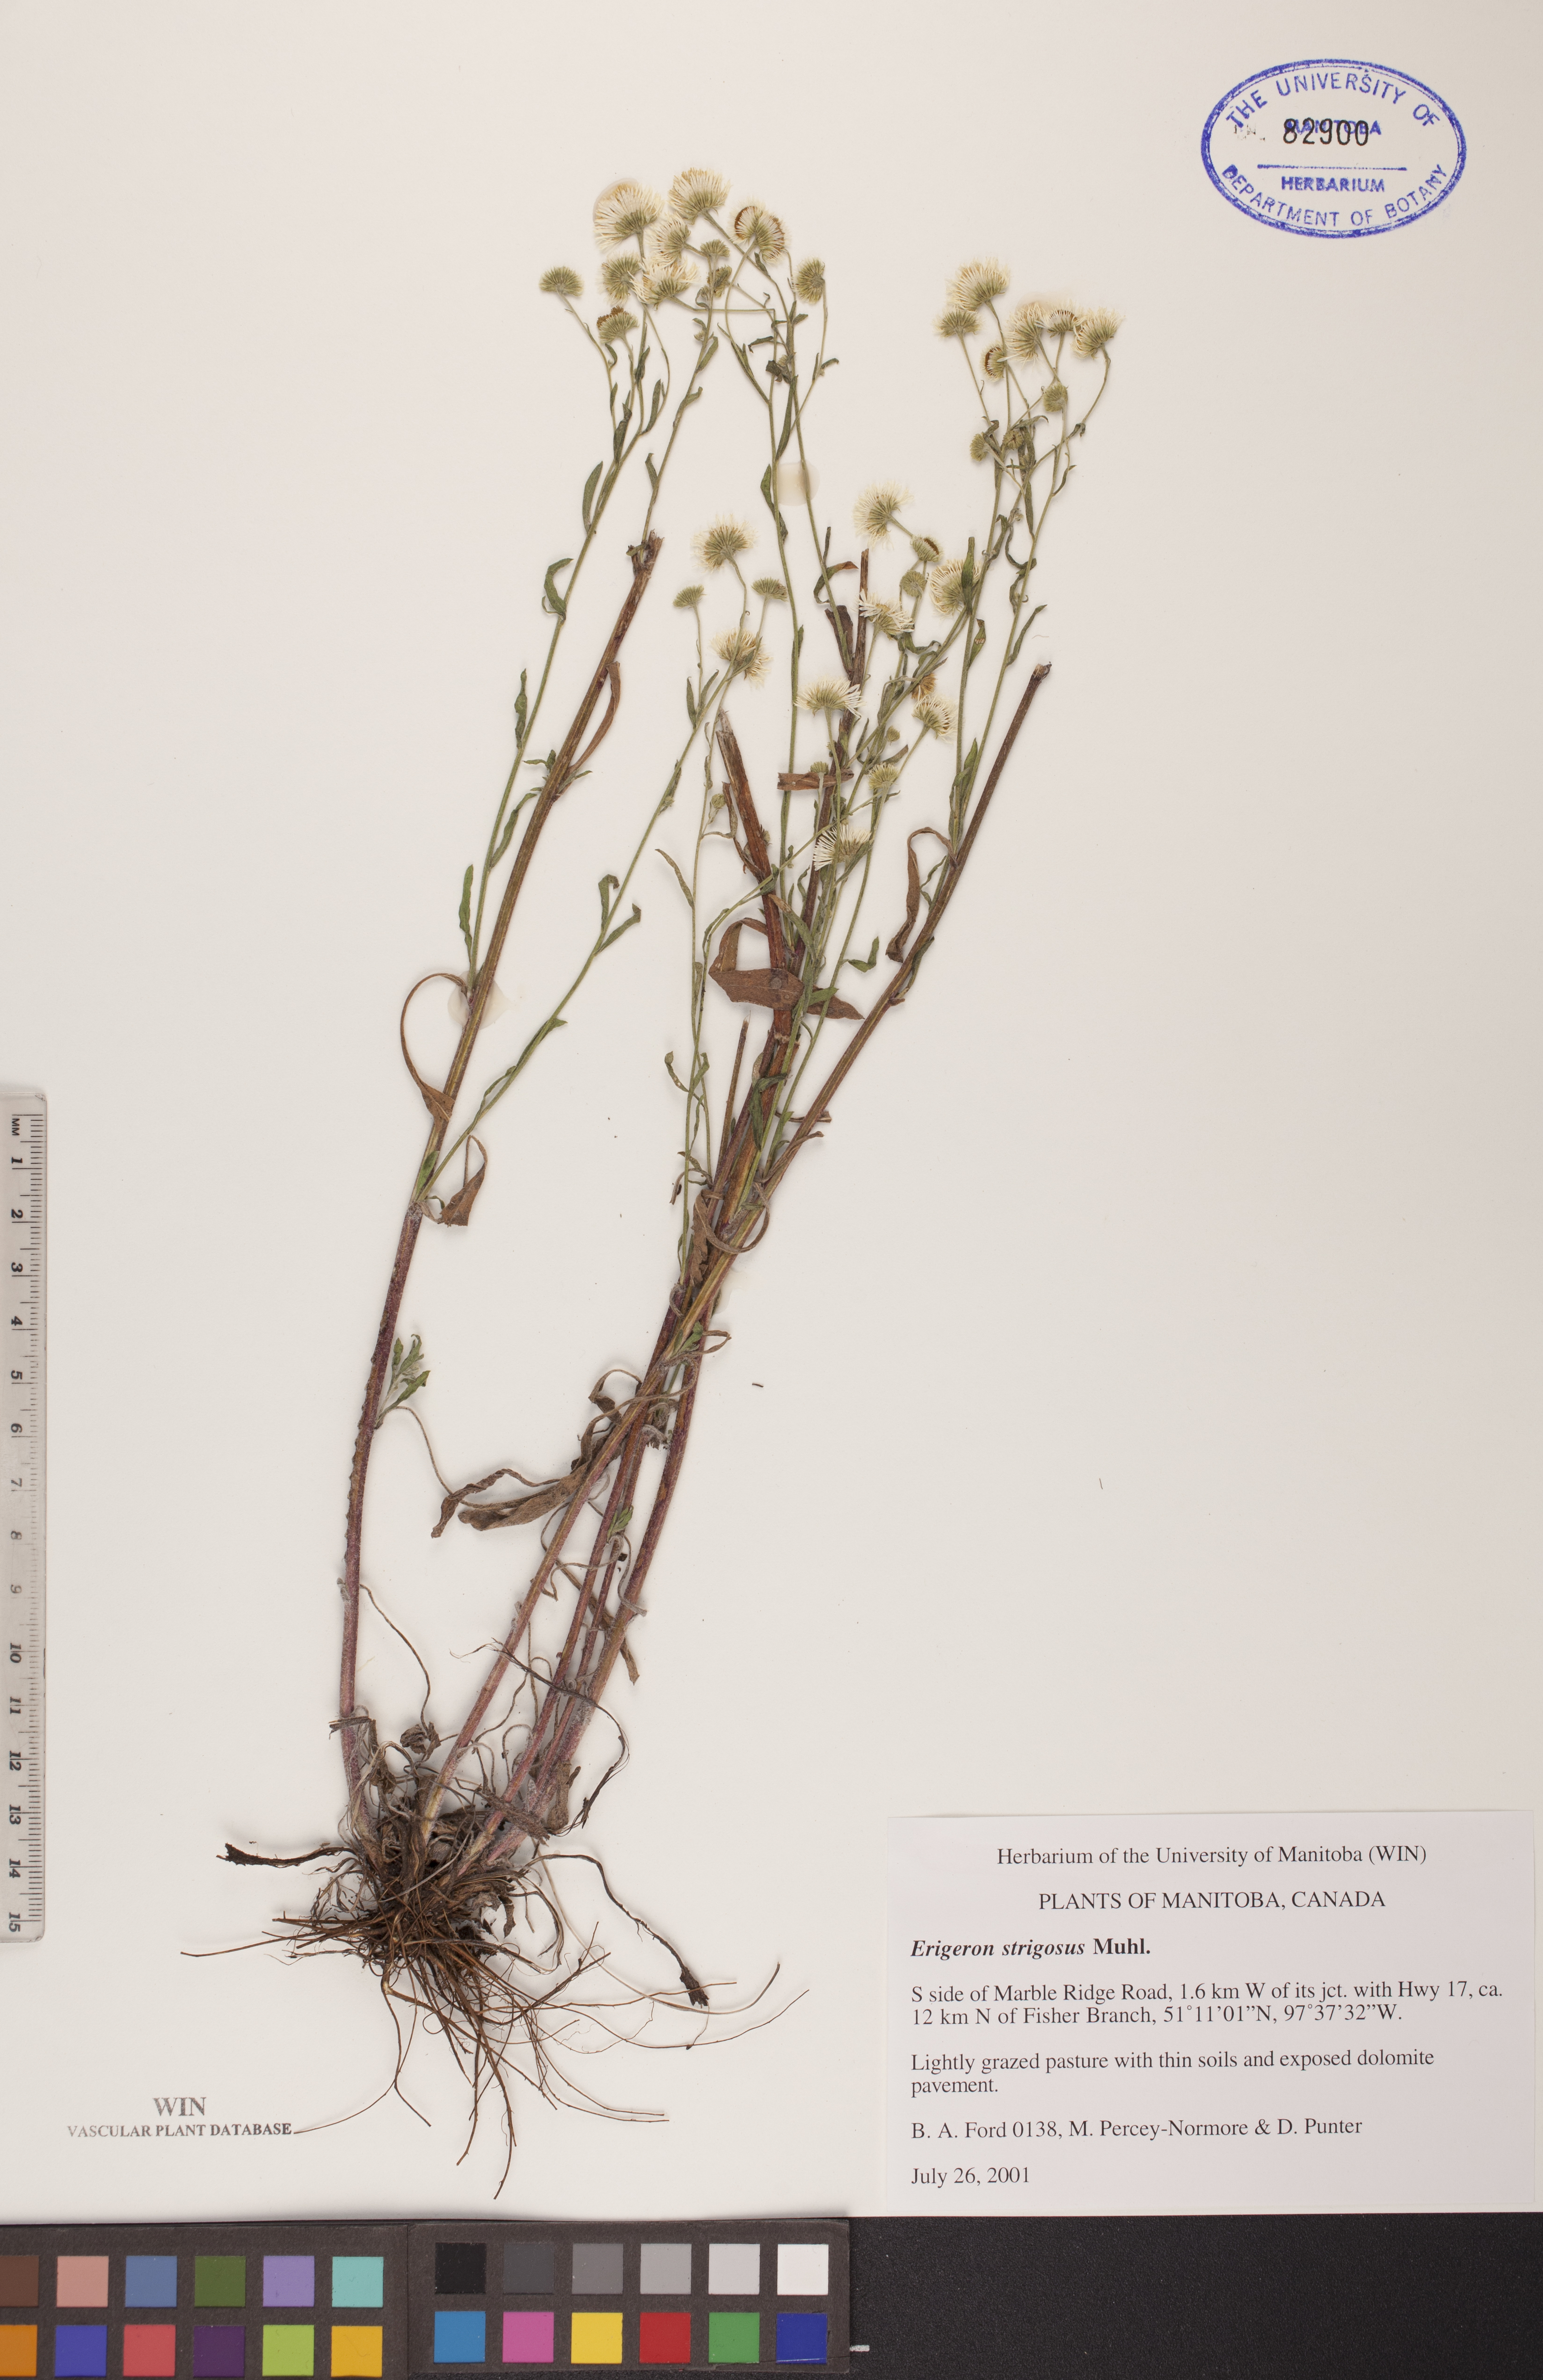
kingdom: Plantae
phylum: Tracheophyta
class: Magnoliopsida
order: Asterales
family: Asteraceae
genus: Erigeron
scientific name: Erigeron strigosus
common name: Common eastern fleabane
